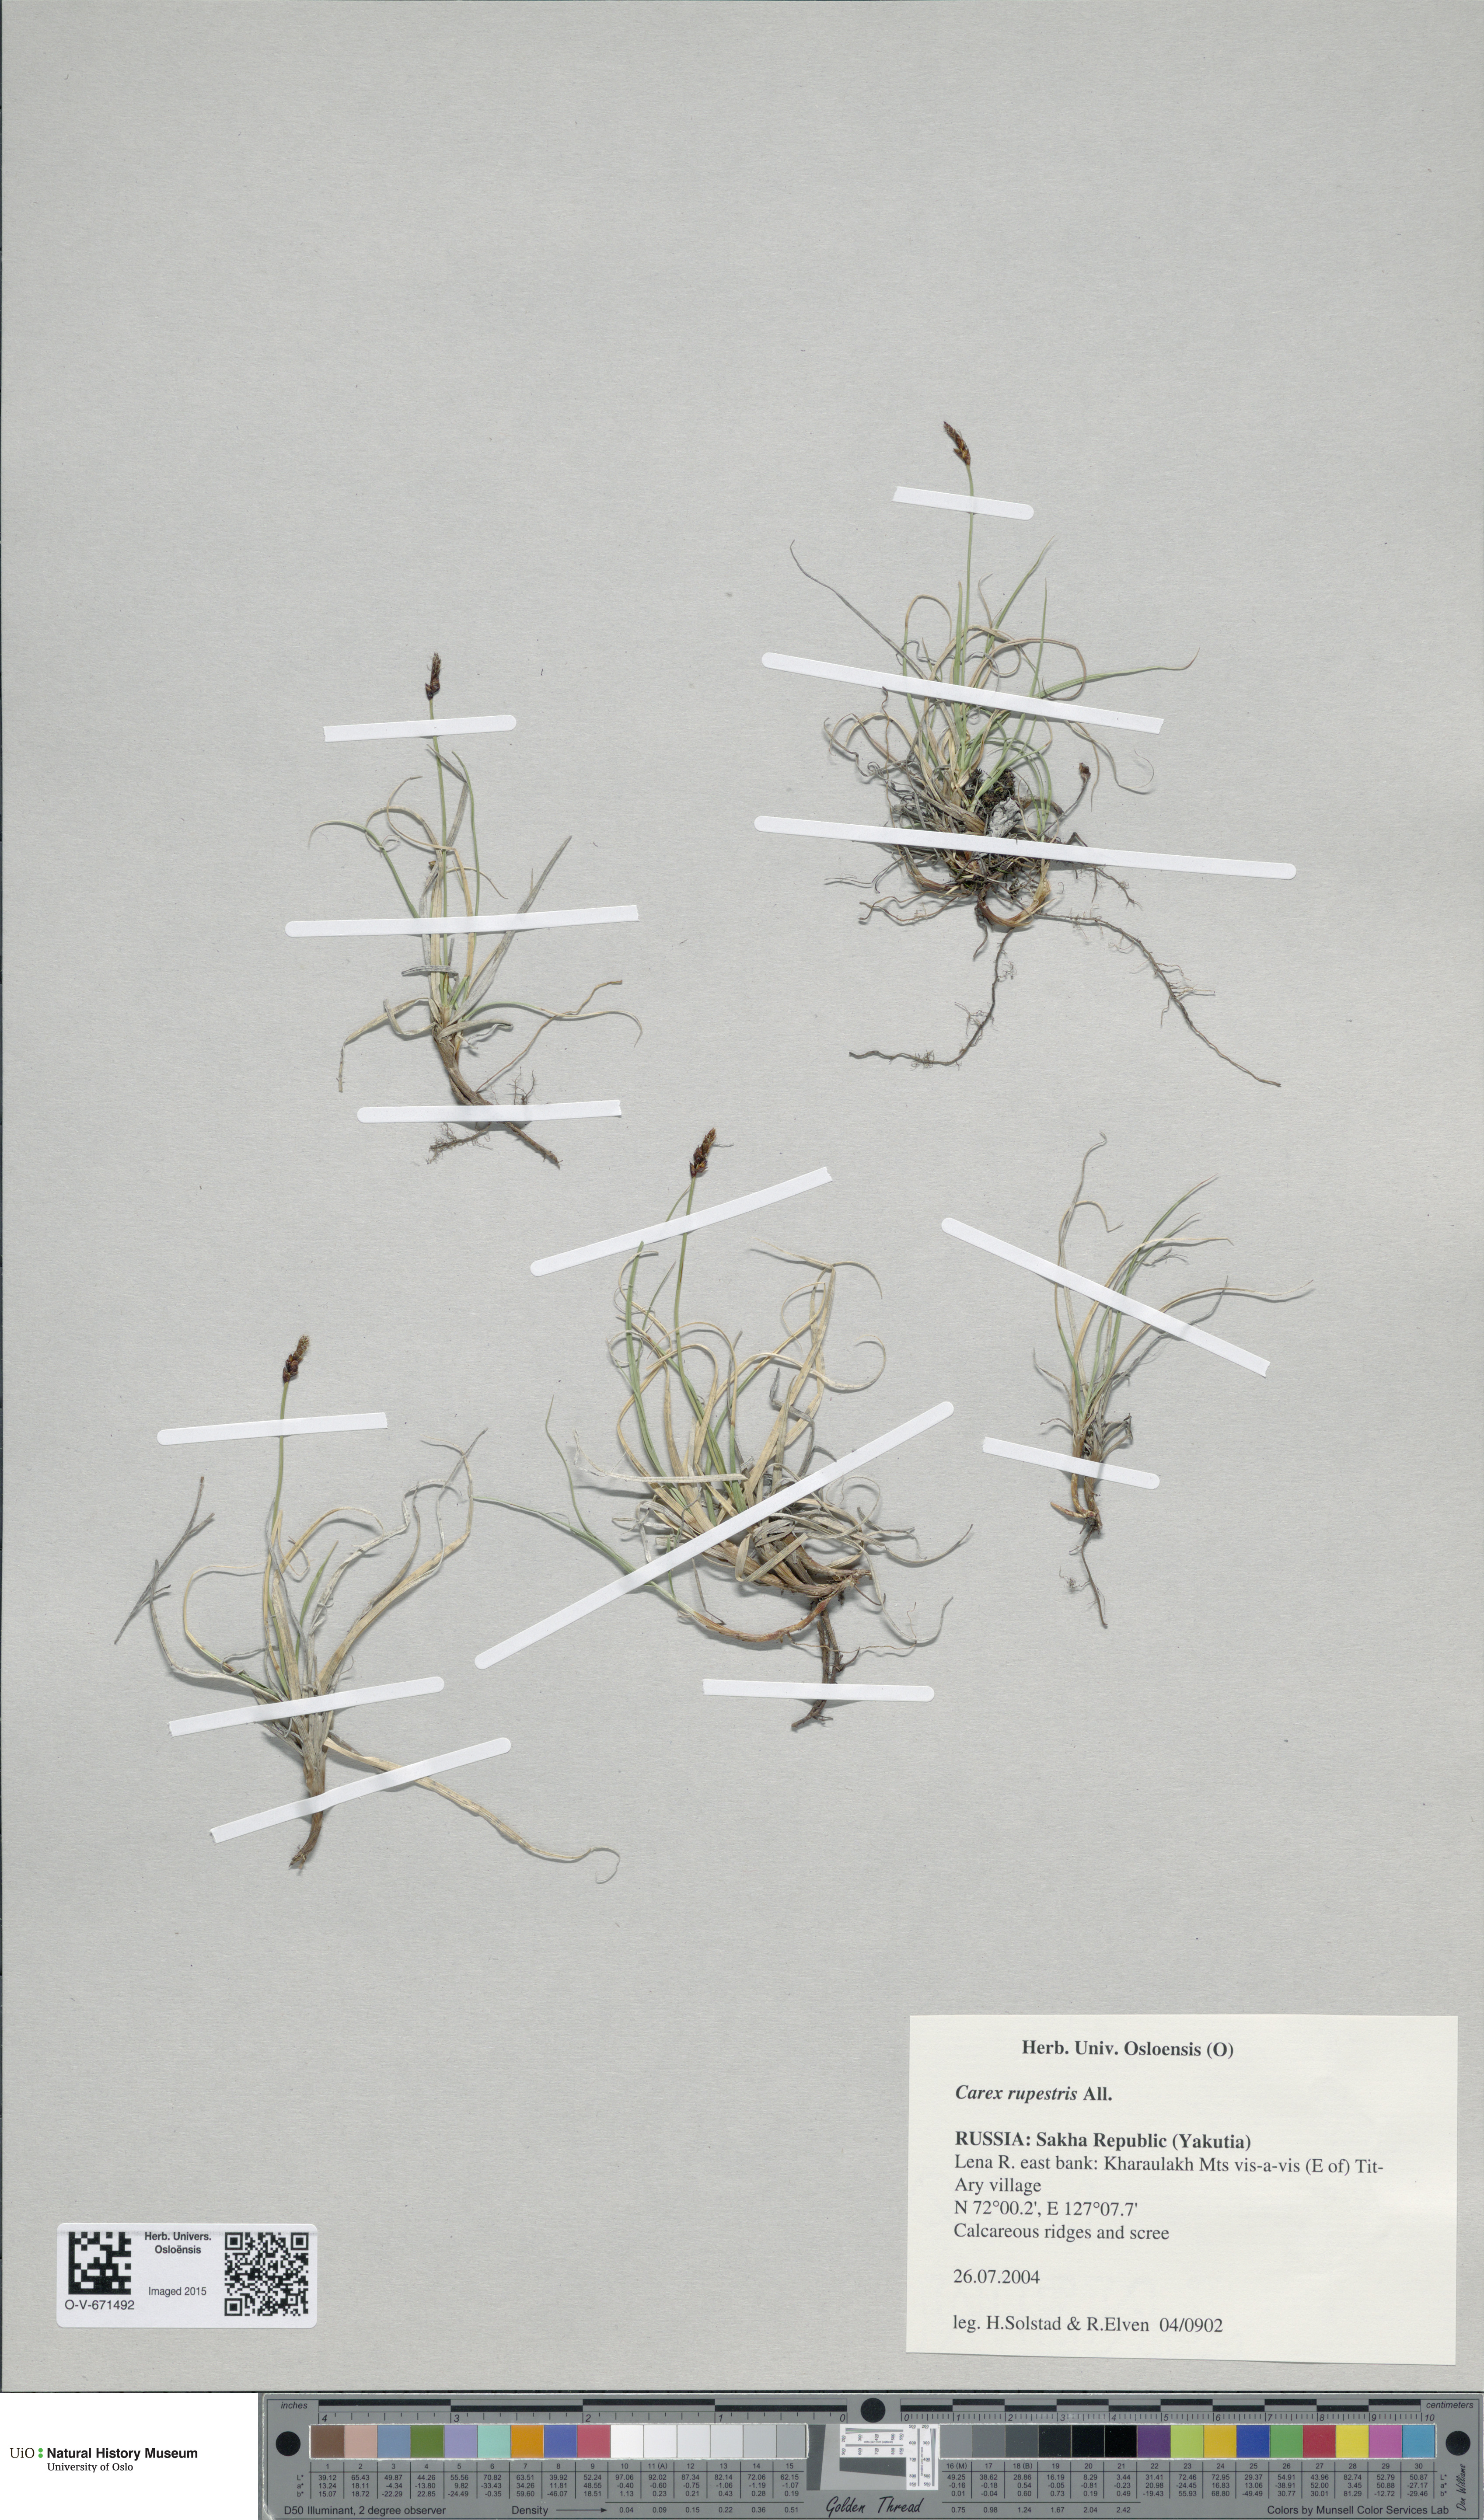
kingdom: Plantae
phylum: Tracheophyta
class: Liliopsida
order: Poales
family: Cyperaceae
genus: Carex
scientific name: Carex rupestris
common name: Rock sedge
